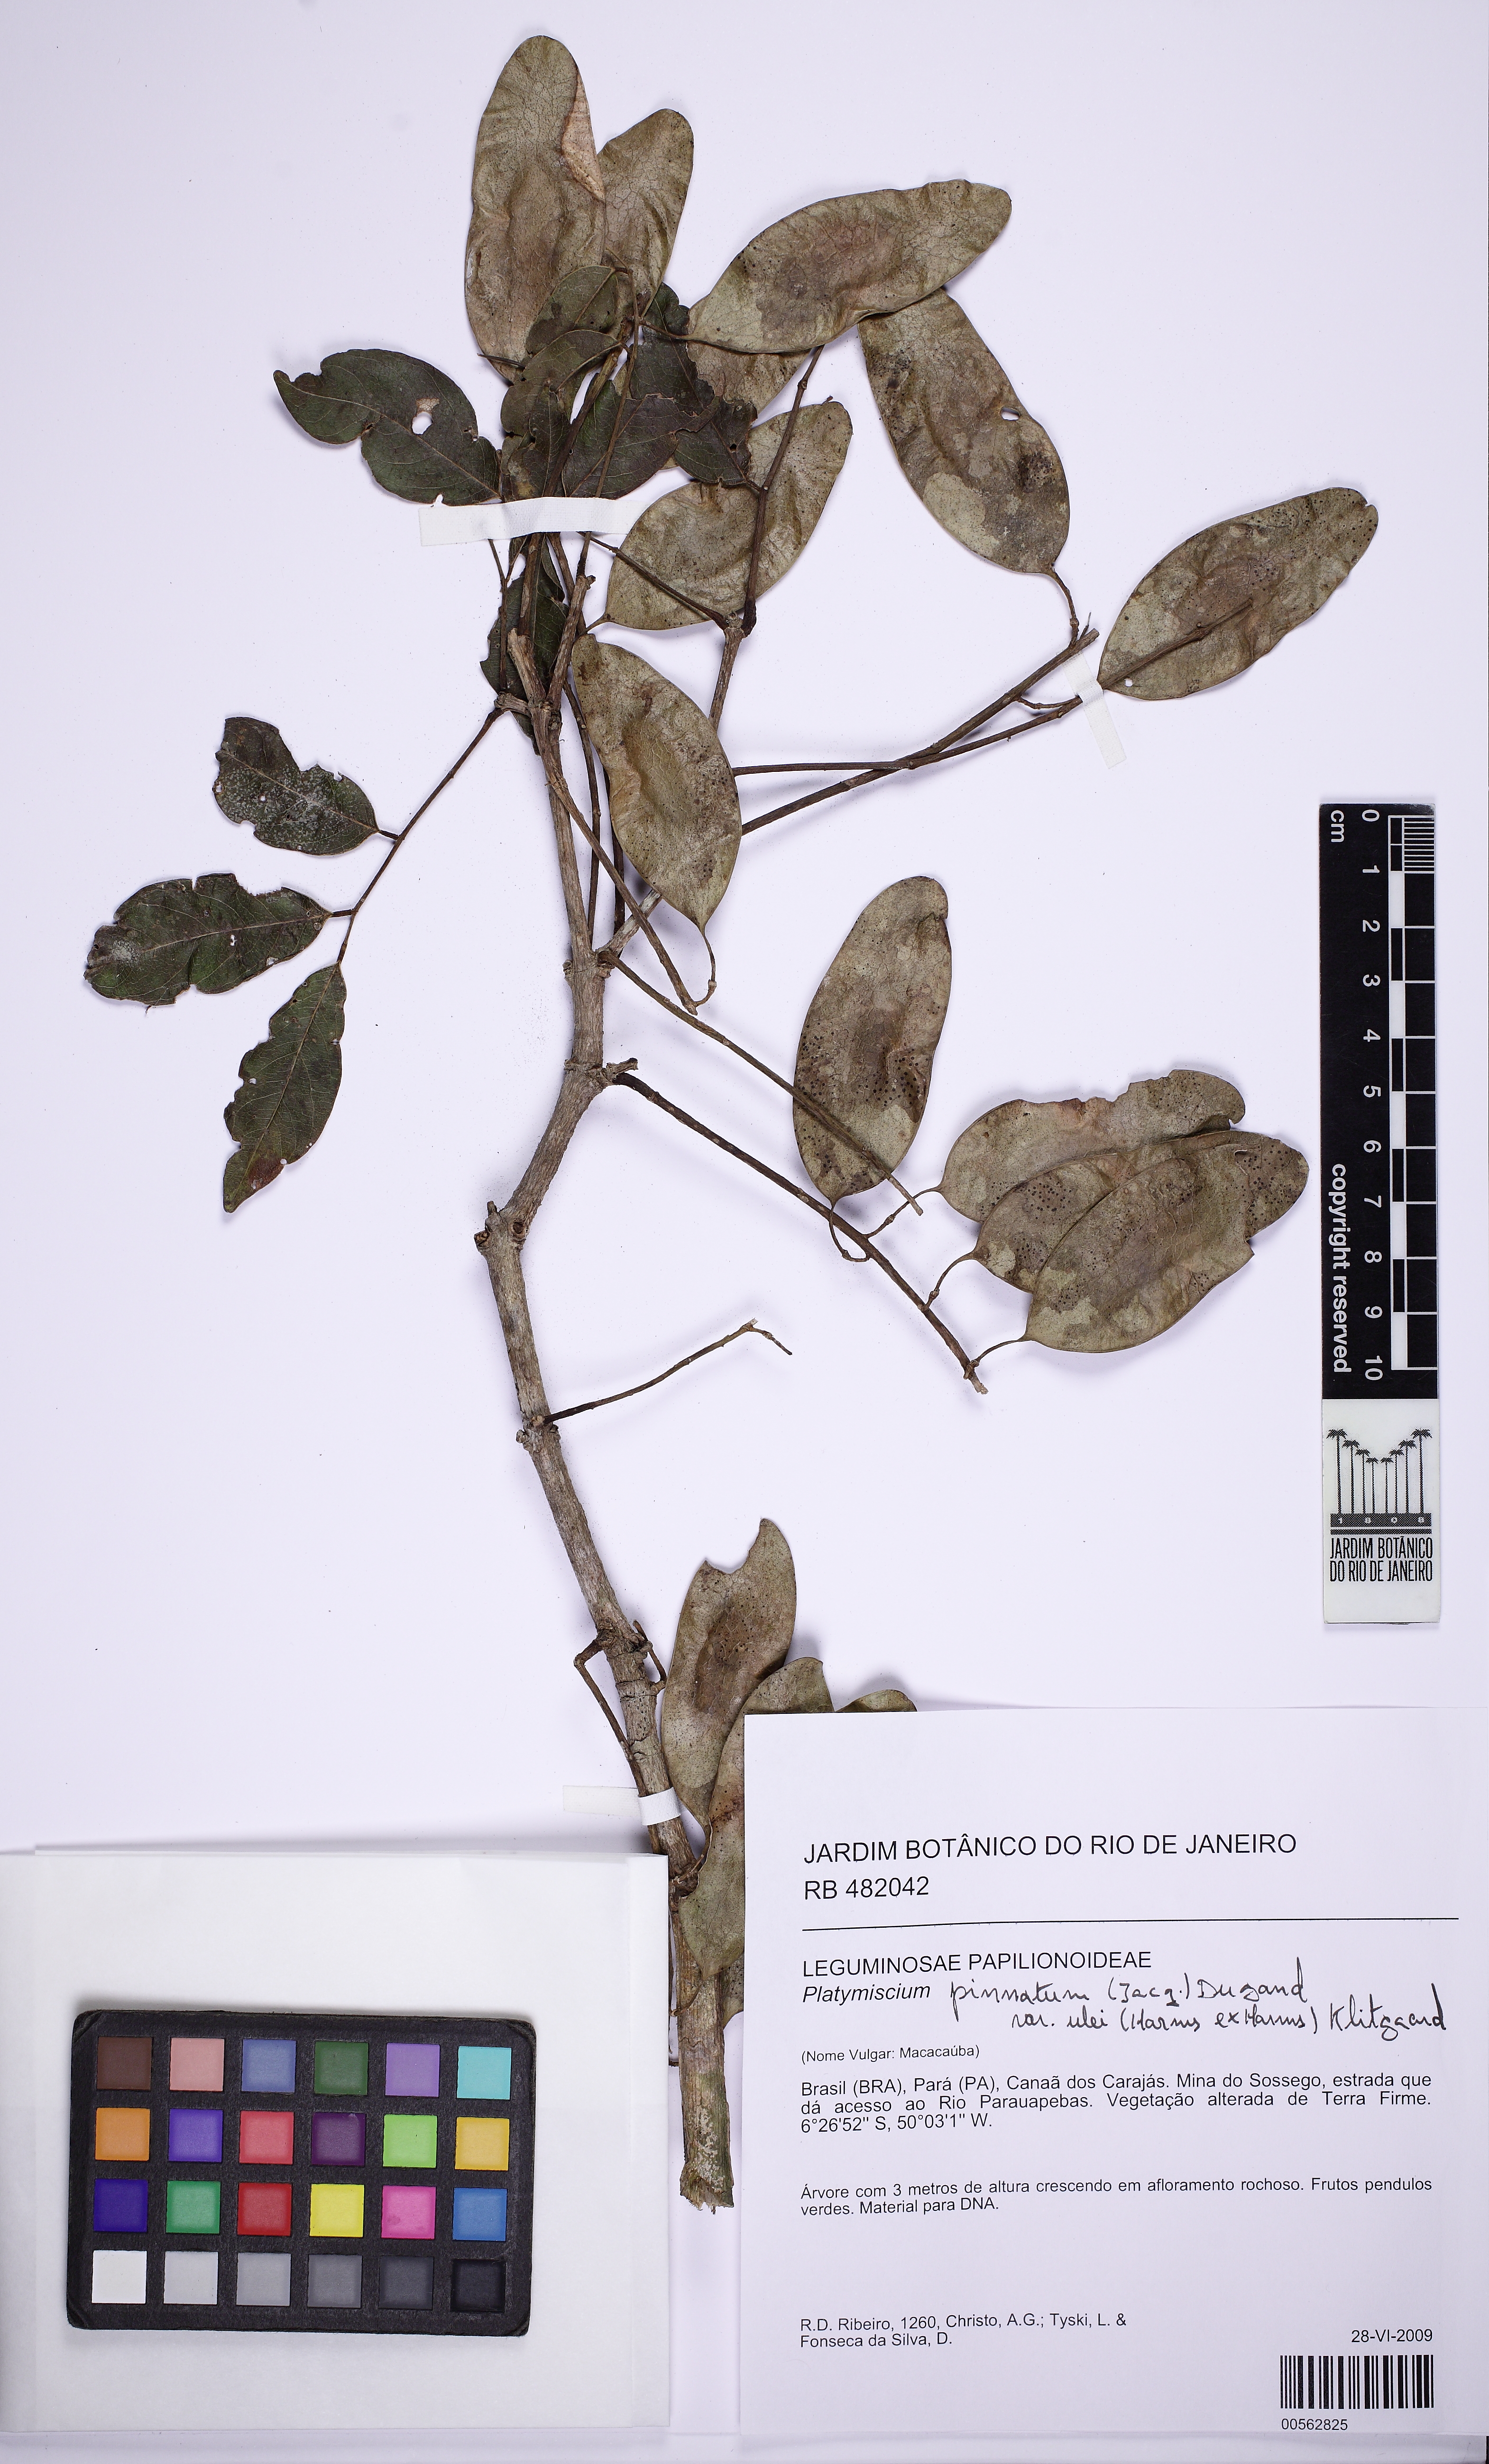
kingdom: Plantae
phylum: Tracheophyta
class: Magnoliopsida
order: Fabales
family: Fabaceae
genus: Platymiscium
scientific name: Platymiscium filipes
